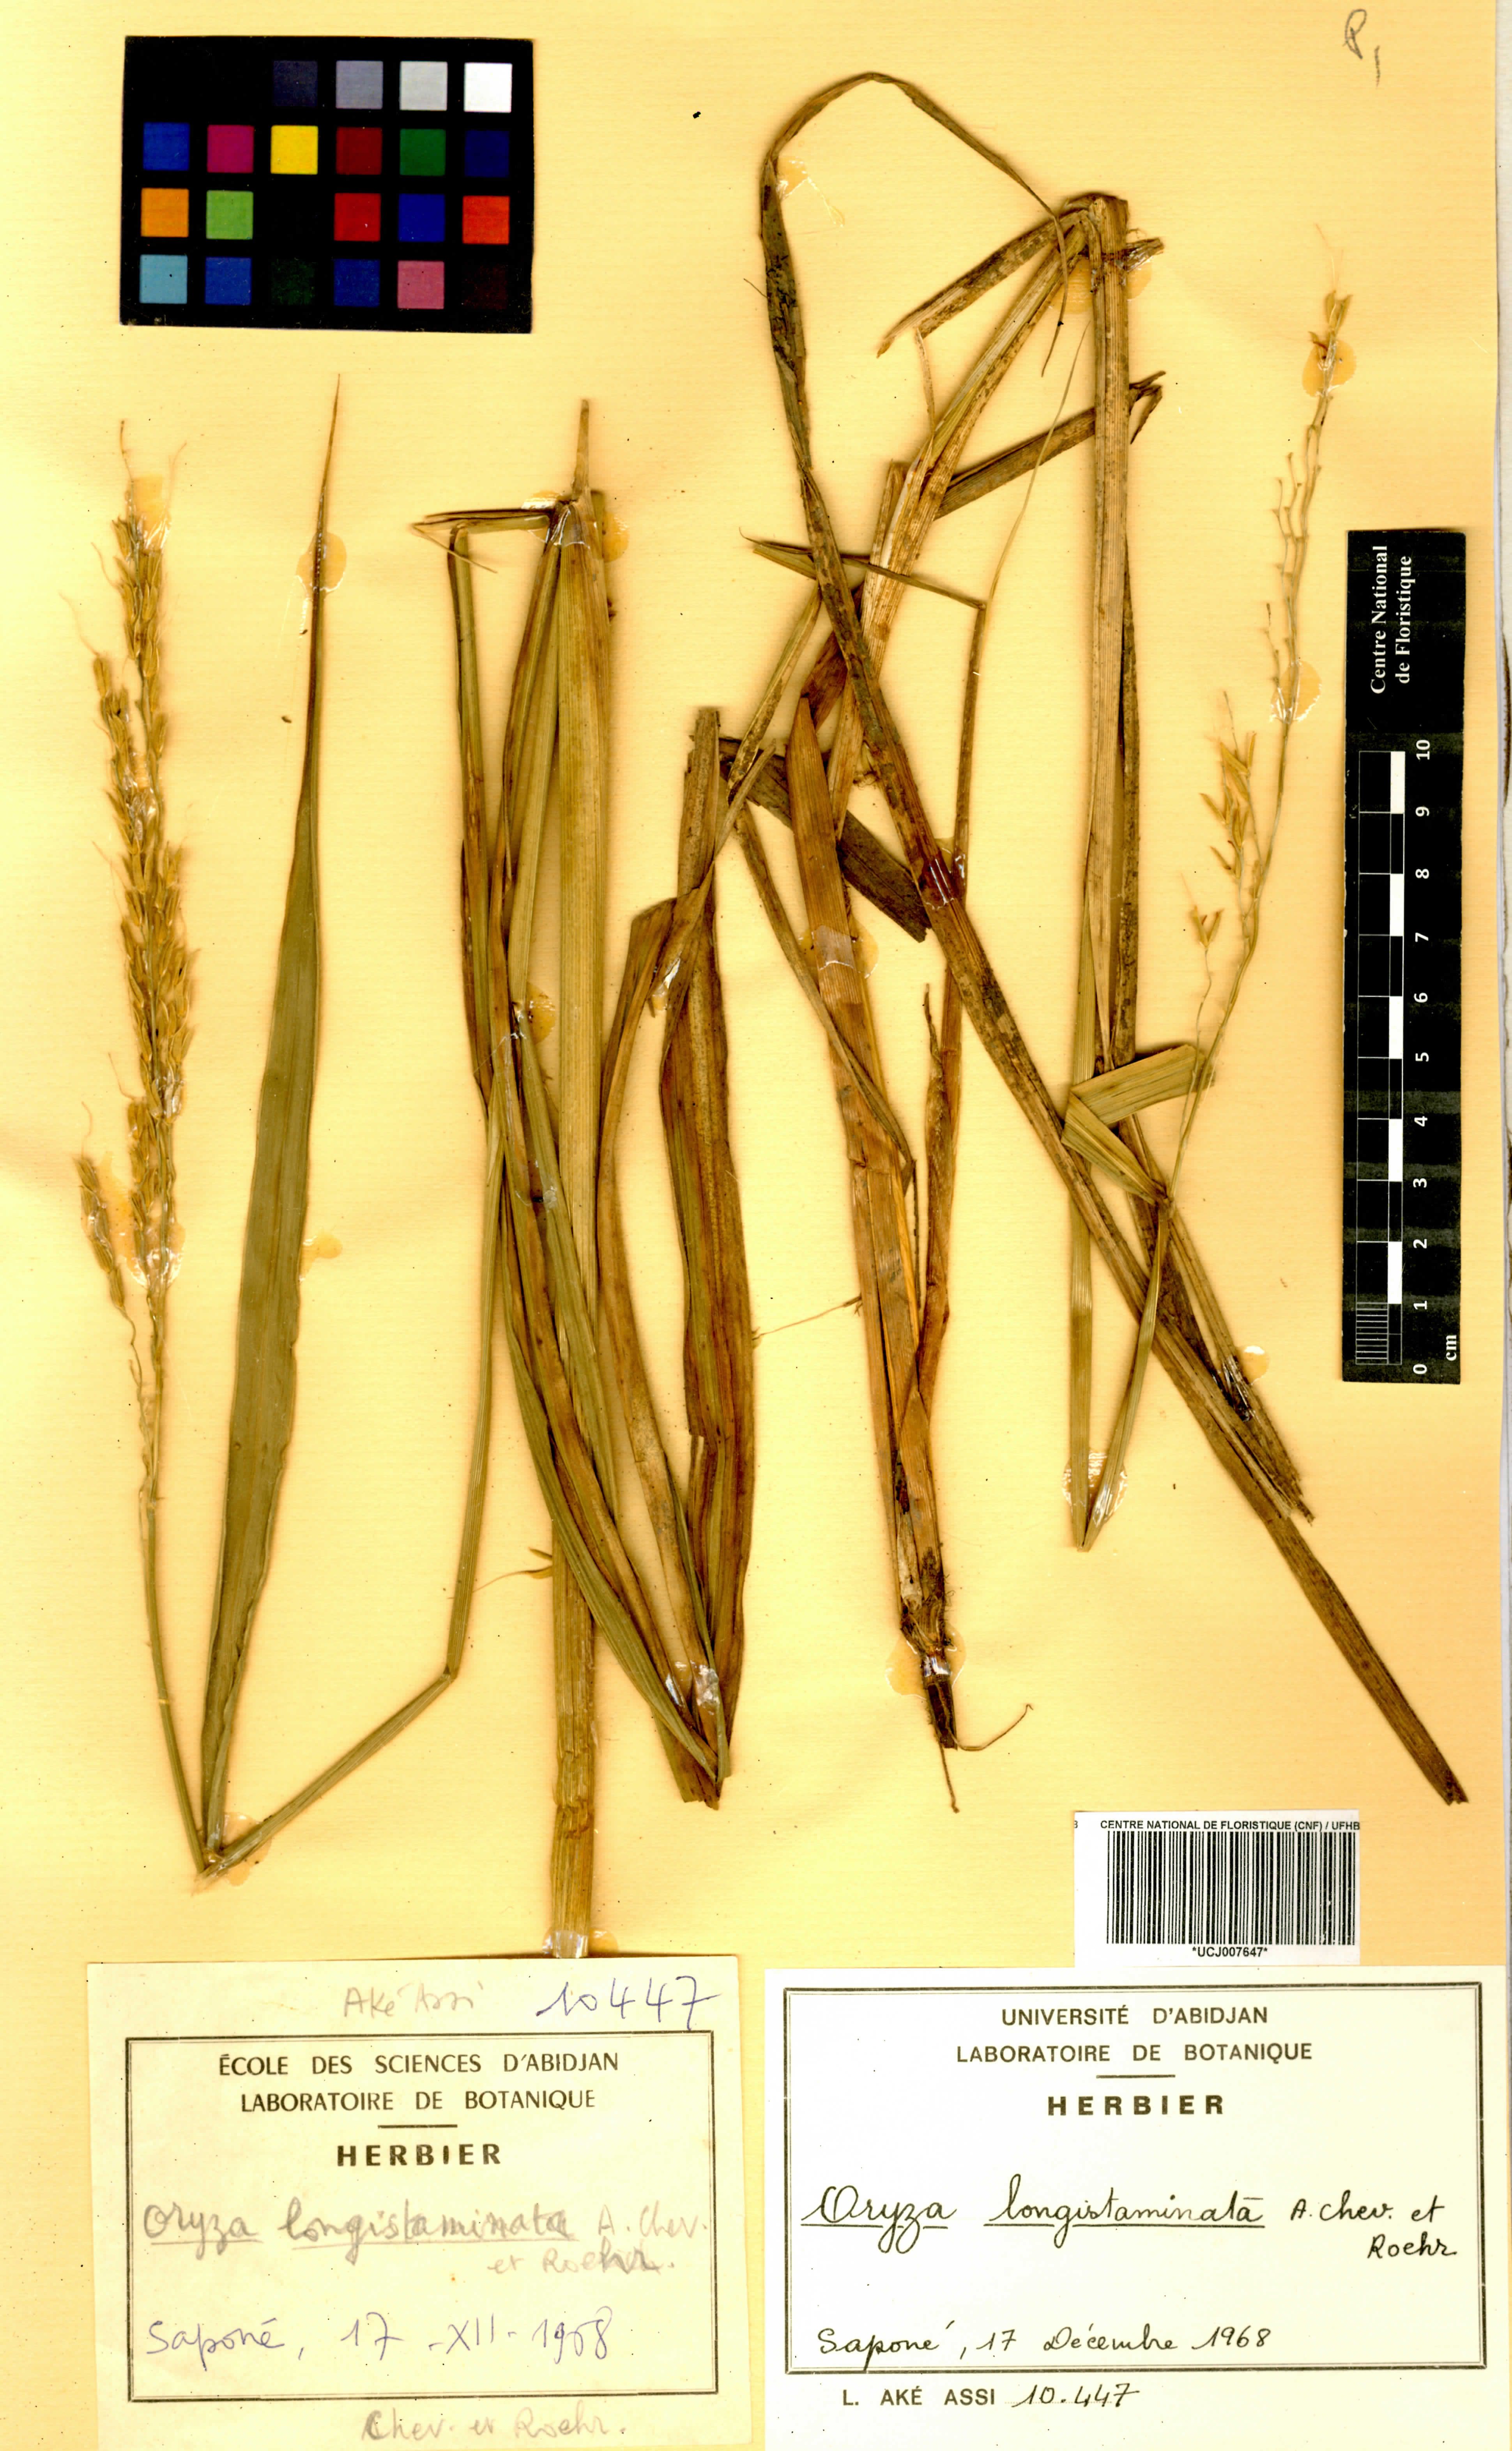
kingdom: Plantae
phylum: Tracheophyta
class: Liliopsida
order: Poales
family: Poaceae
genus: Oryza
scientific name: Oryza longistaminata
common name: Red rice
